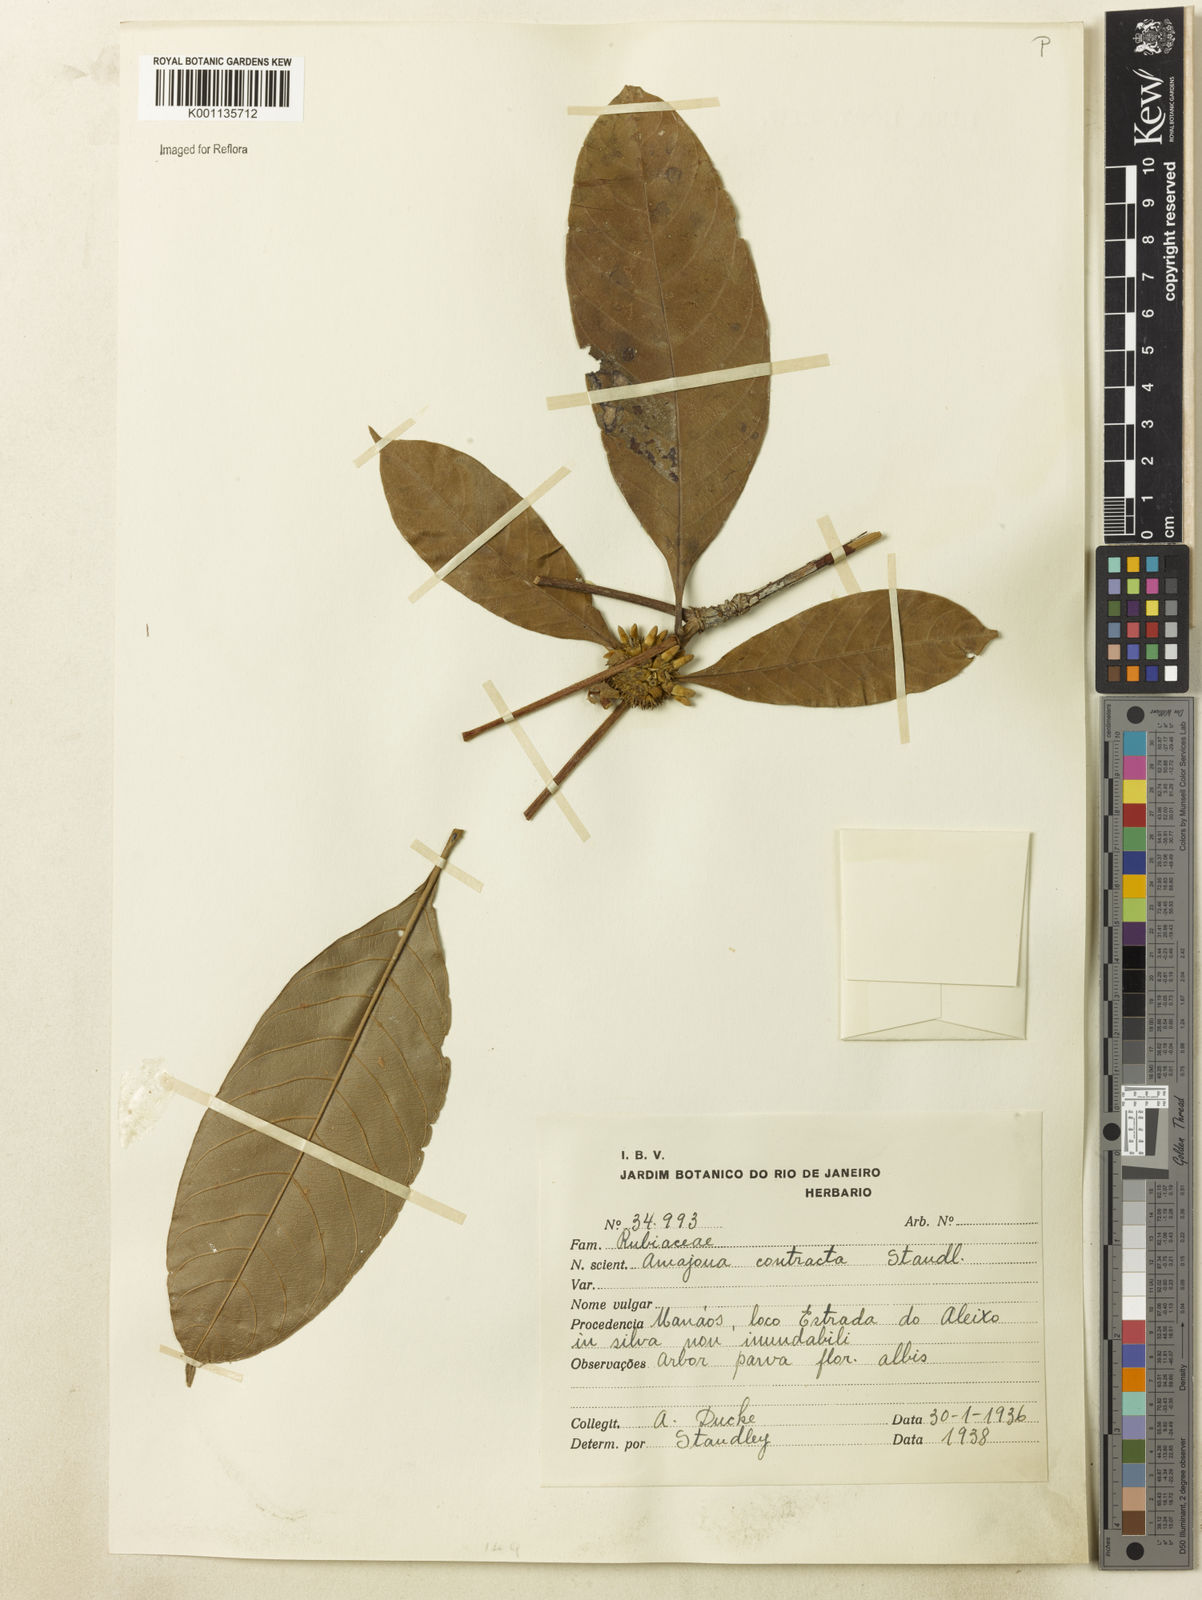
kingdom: Plantae
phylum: Tracheophyta
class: Magnoliopsida
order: Gentianales
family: Rubiaceae
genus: Amaioua
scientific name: Amaioua contracta
